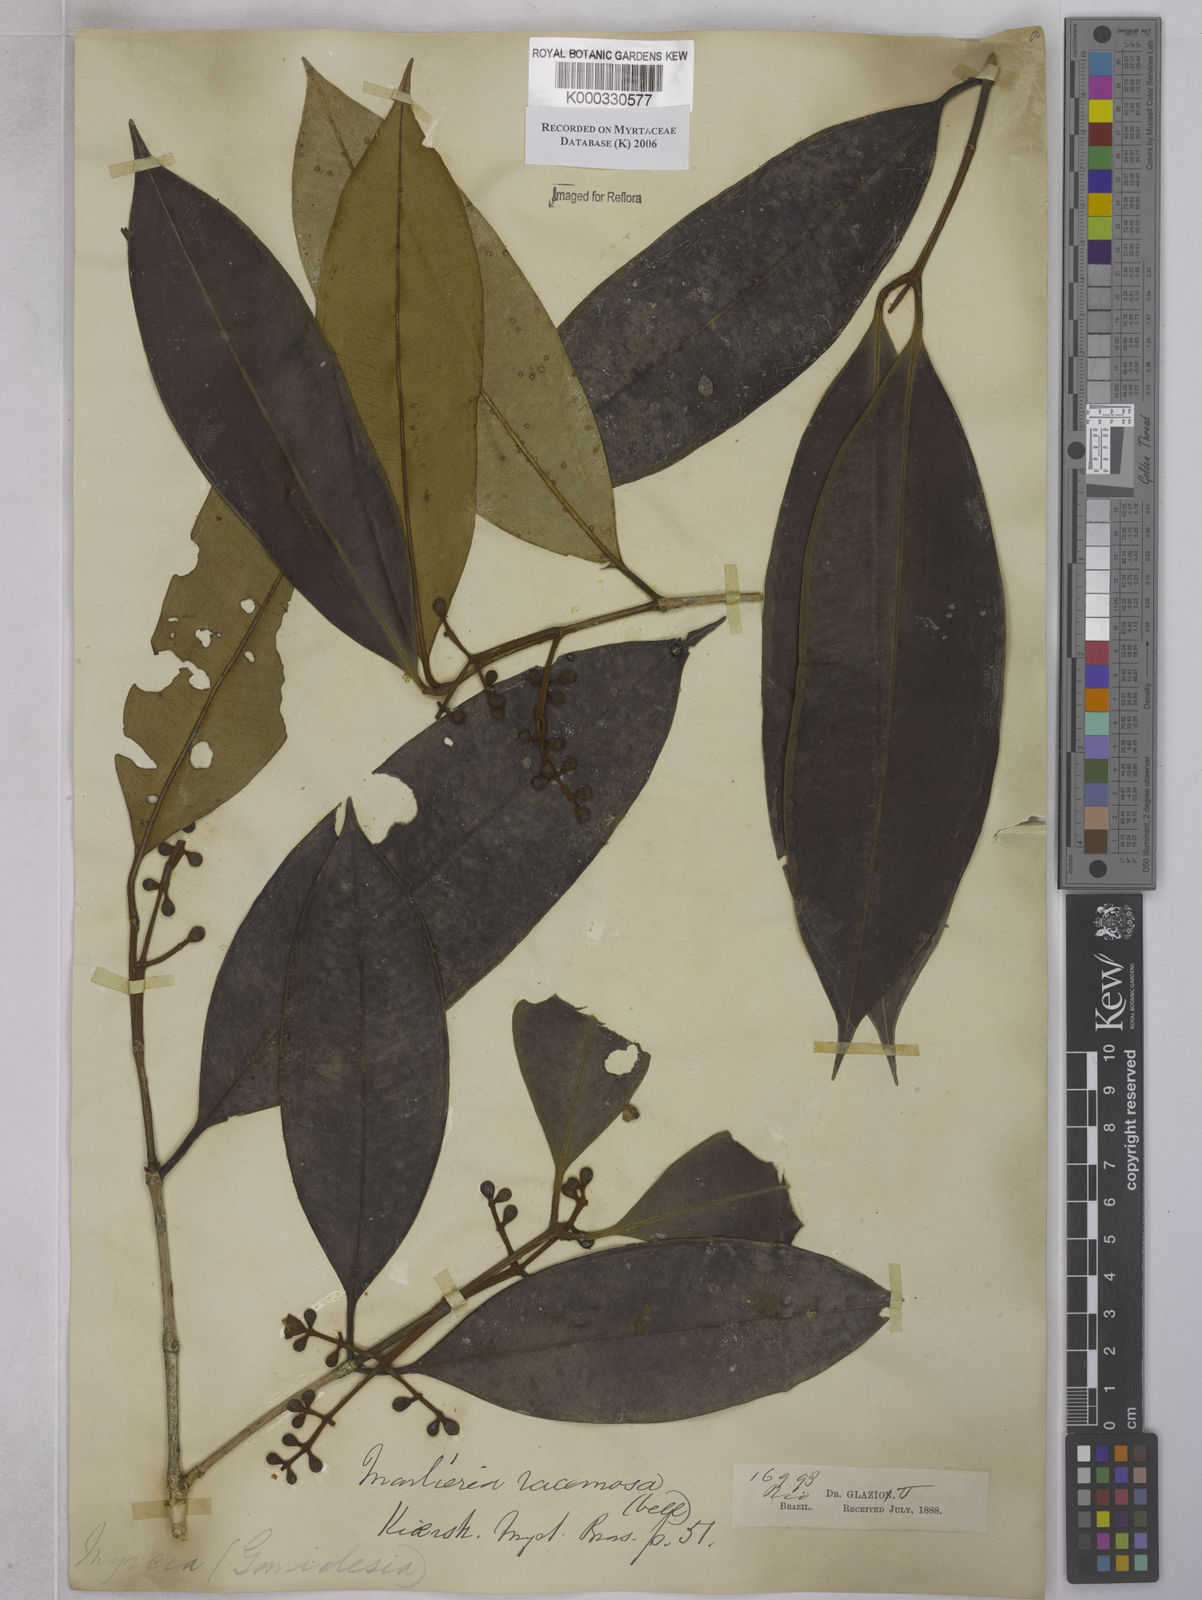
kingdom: Plantae
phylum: Tracheophyta
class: Magnoliopsida
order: Myrtales
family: Myrtaceae
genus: Myrcia
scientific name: Myrcia vellozoi
